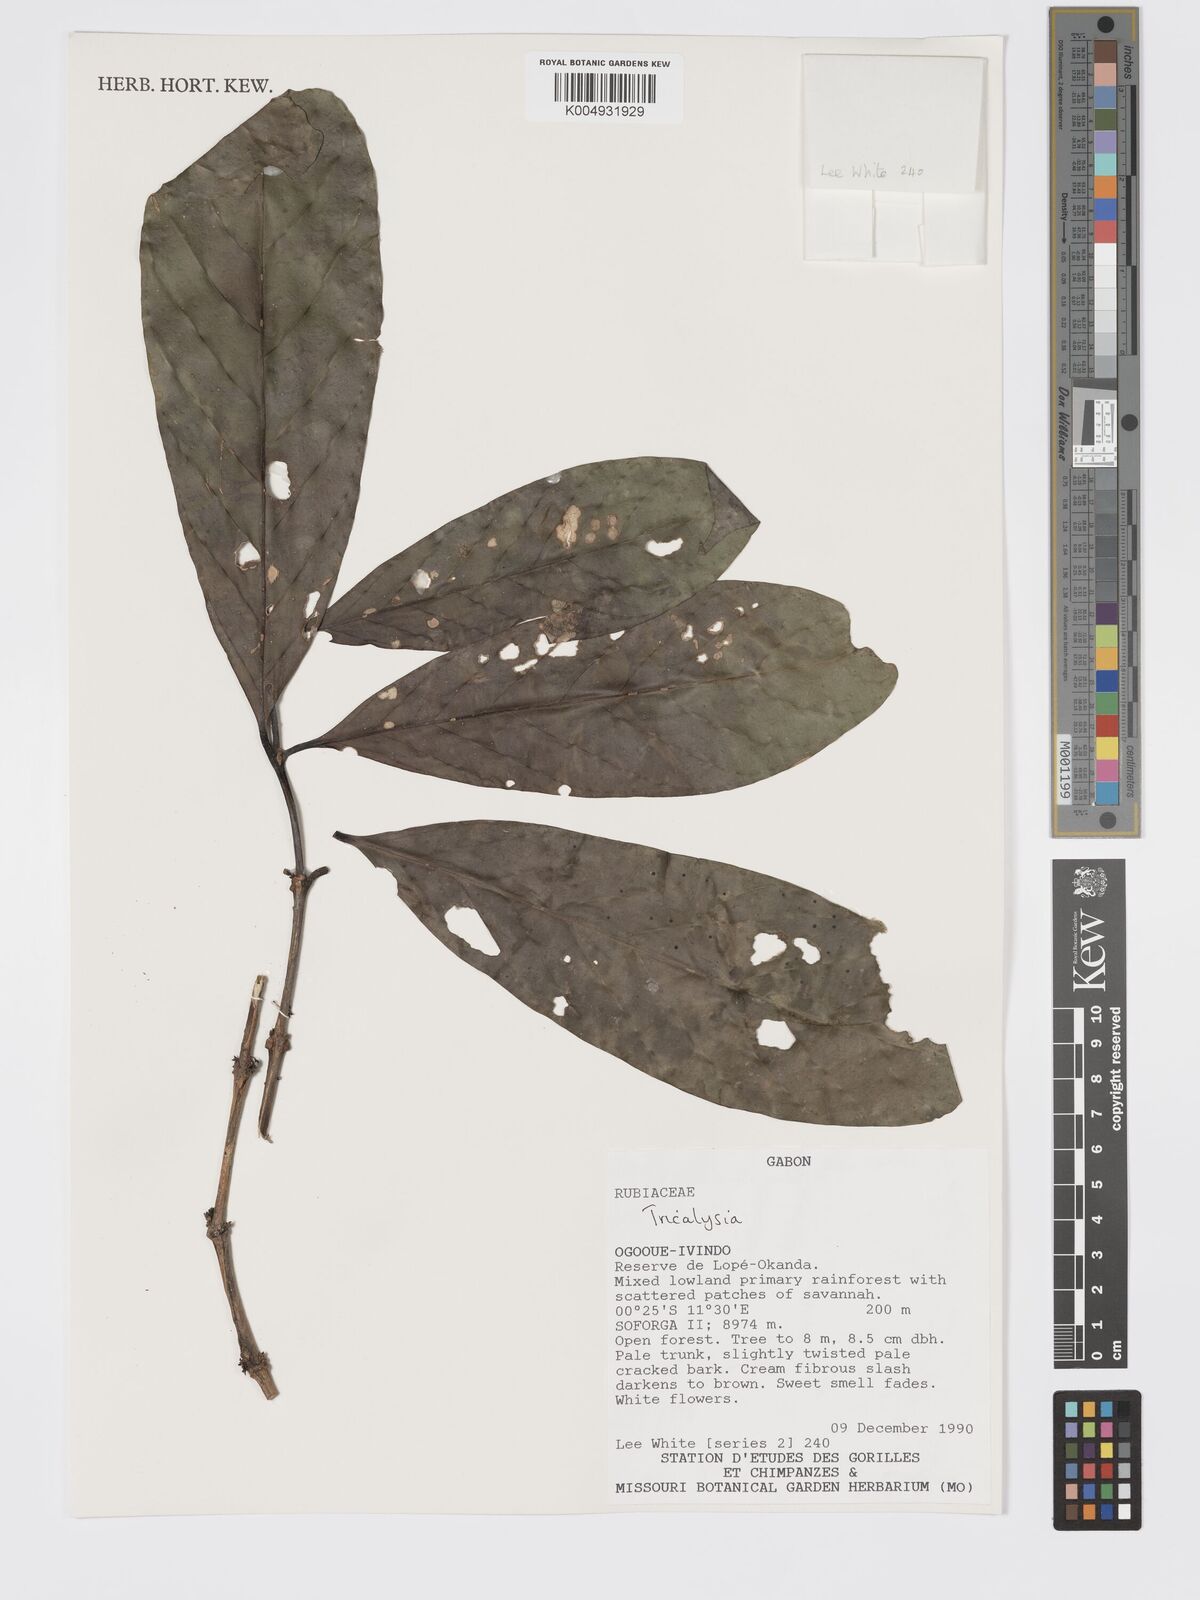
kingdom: Plantae
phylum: Tracheophyta
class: Magnoliopsida
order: Gentianales
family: Rubiaceae
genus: Tricalysia
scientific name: Tricalysia
